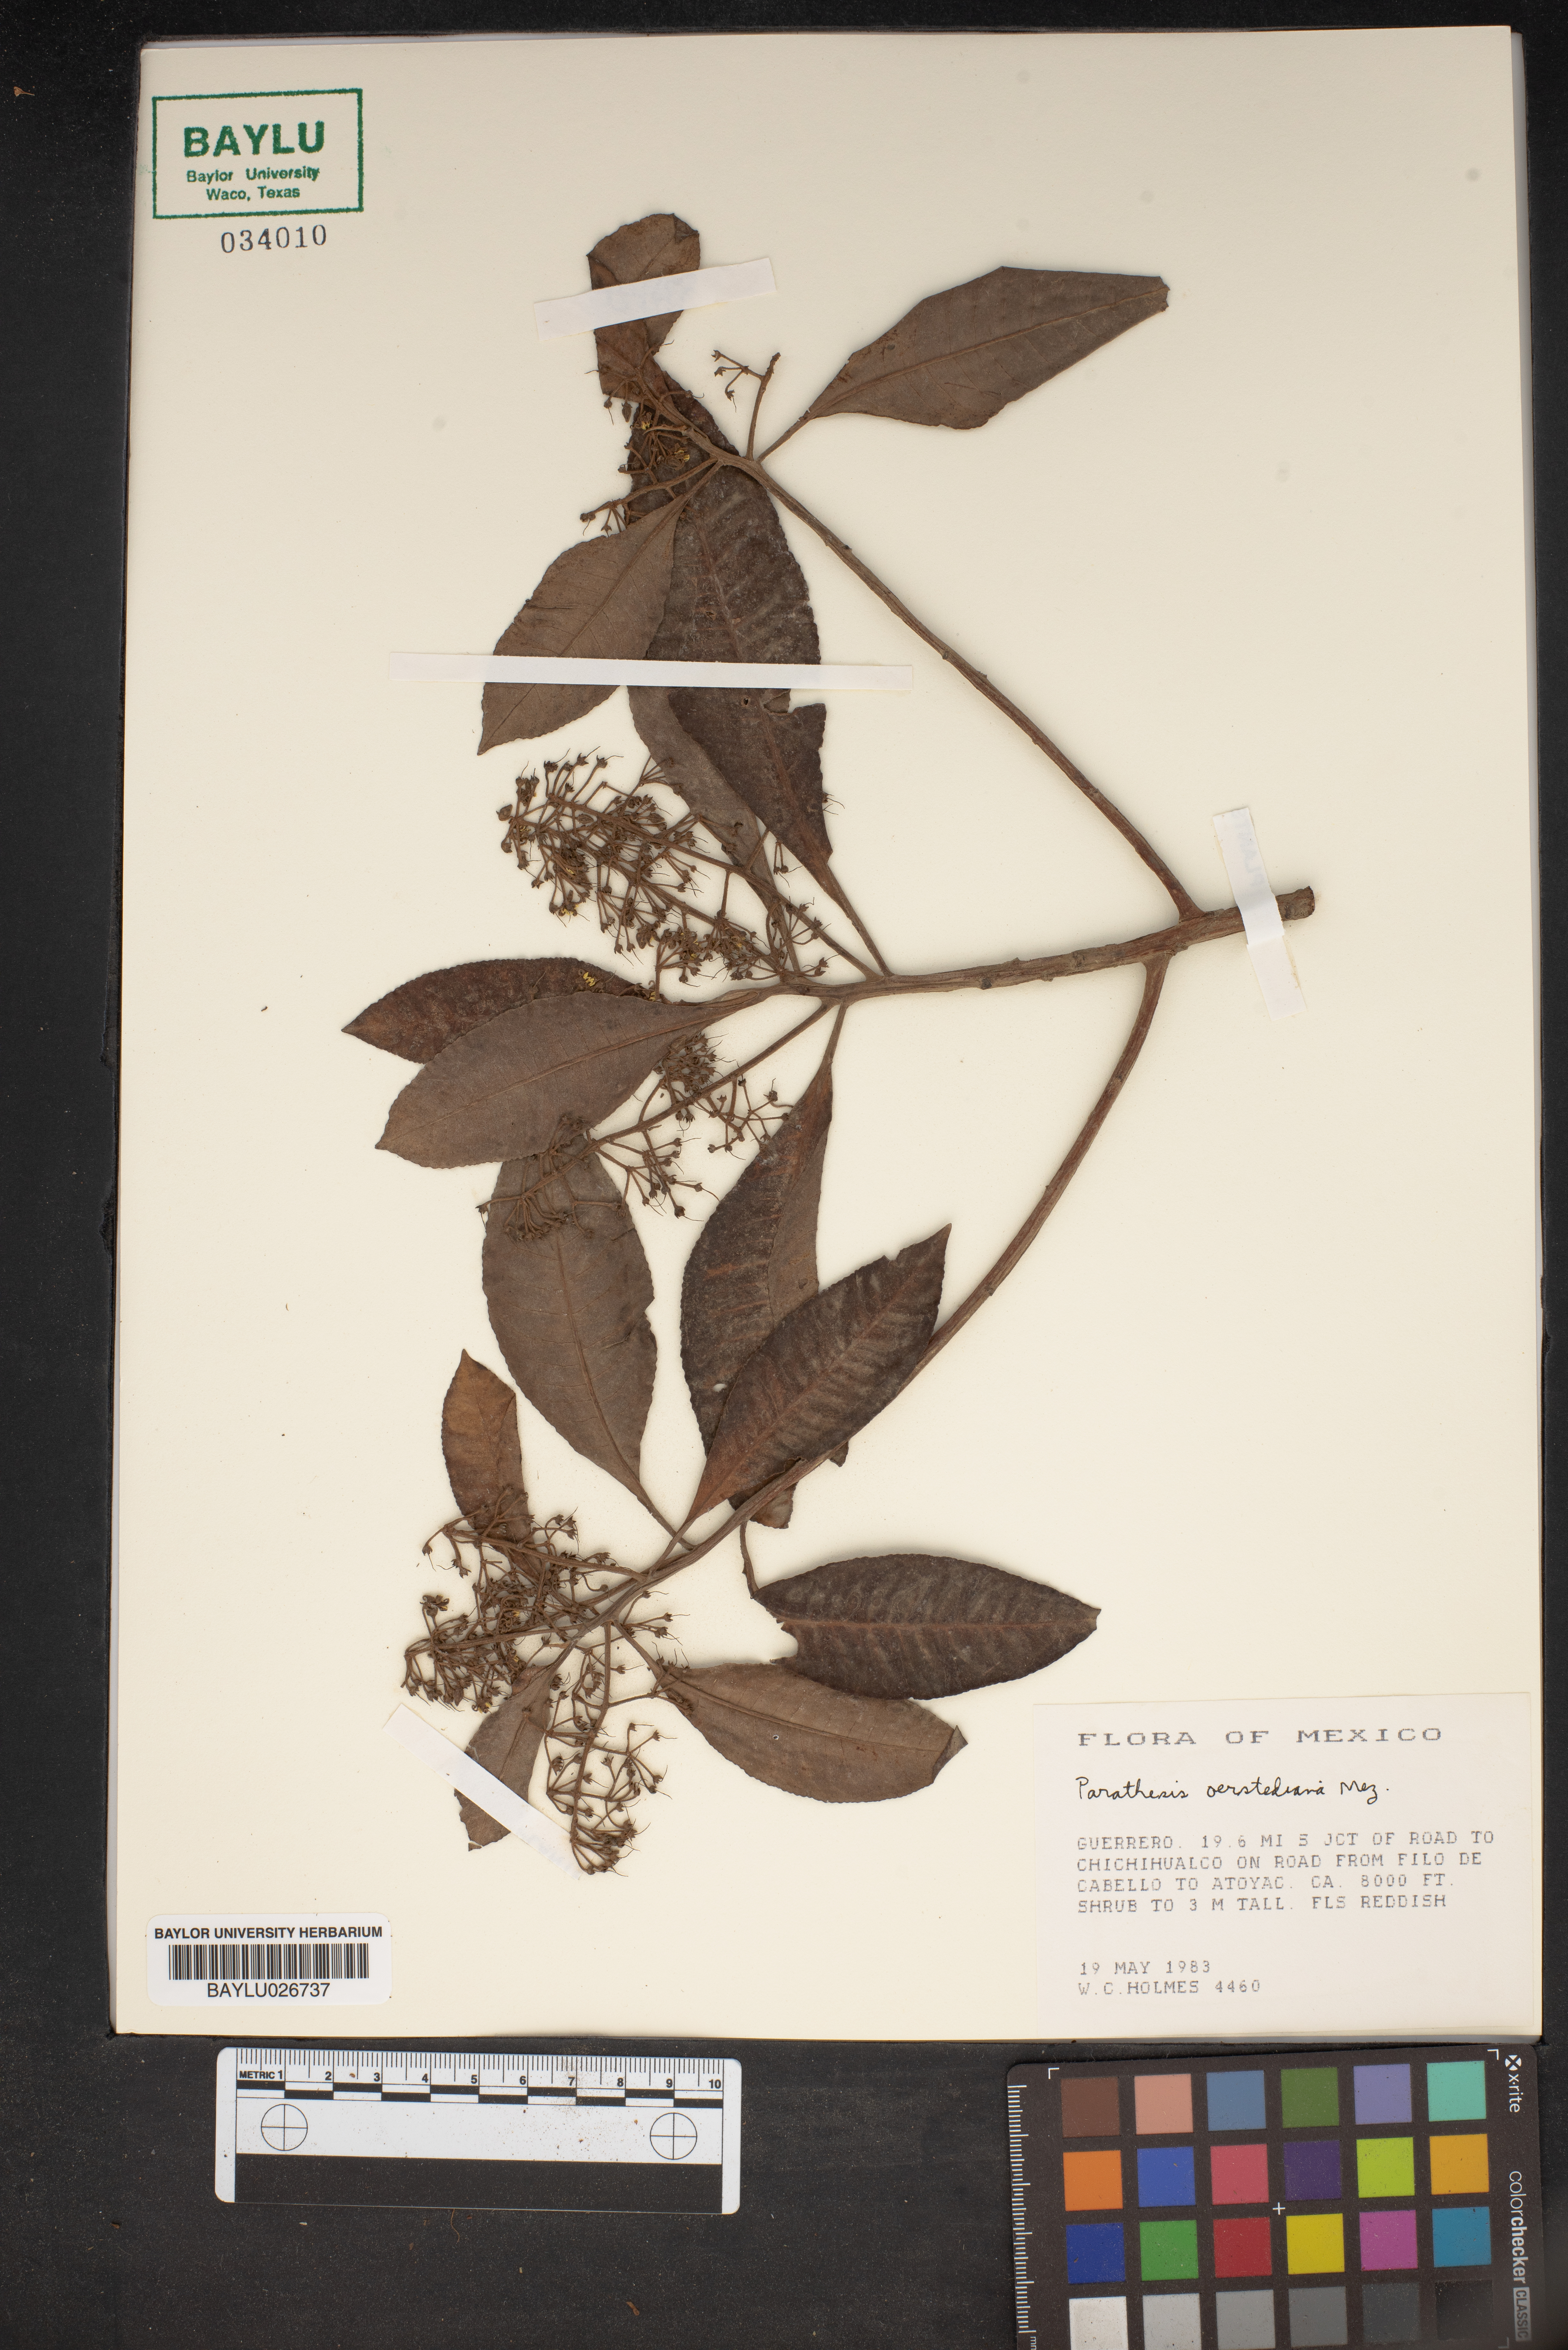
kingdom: Plantae
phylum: Tracheophyta
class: Magnoliopsida
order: Ericales
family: Primulaceae
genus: Parathesis
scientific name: Parathesis serrulata
